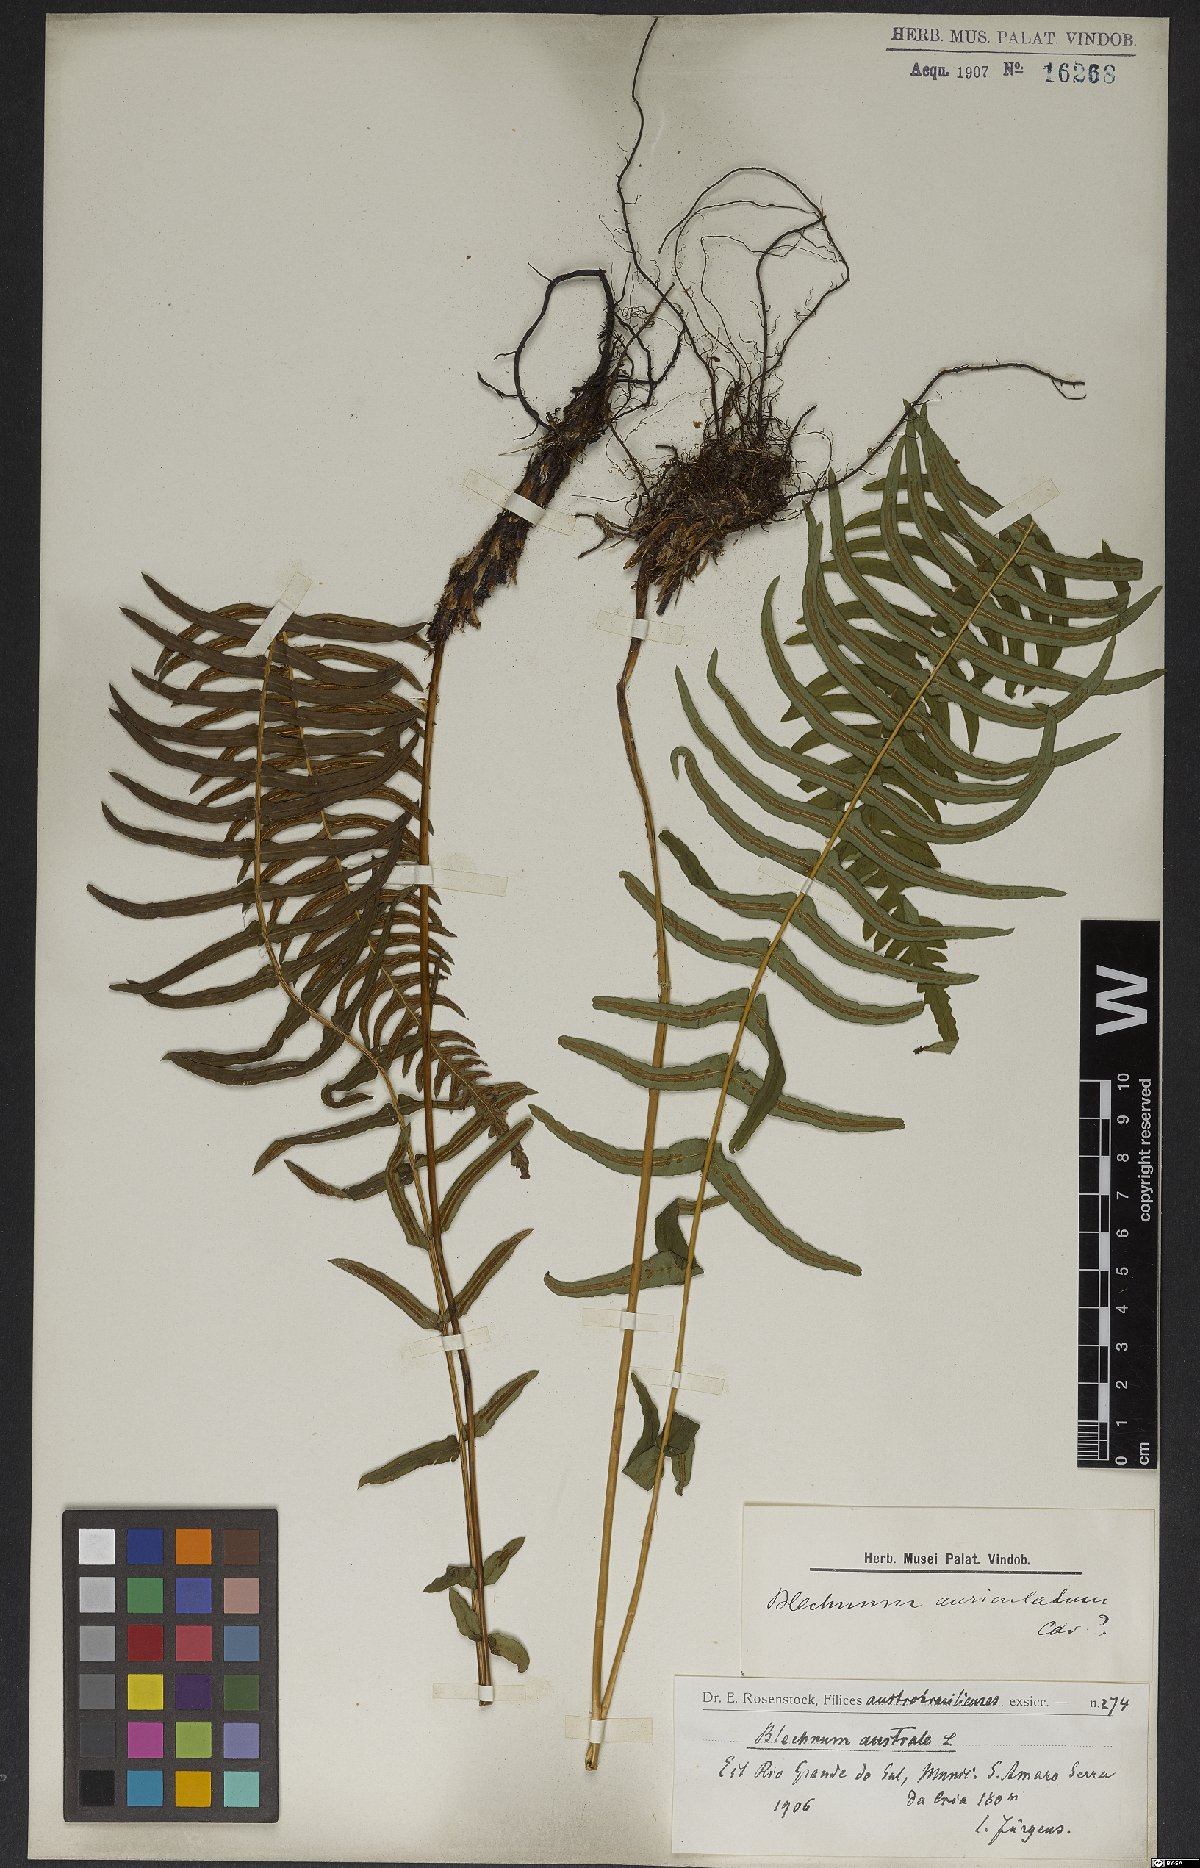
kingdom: Plantae
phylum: Tracheophyta
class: Polypodiopsida
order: Polypodiales
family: Blechnaceae
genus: Blechnum
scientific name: Blechnum auriculatum
